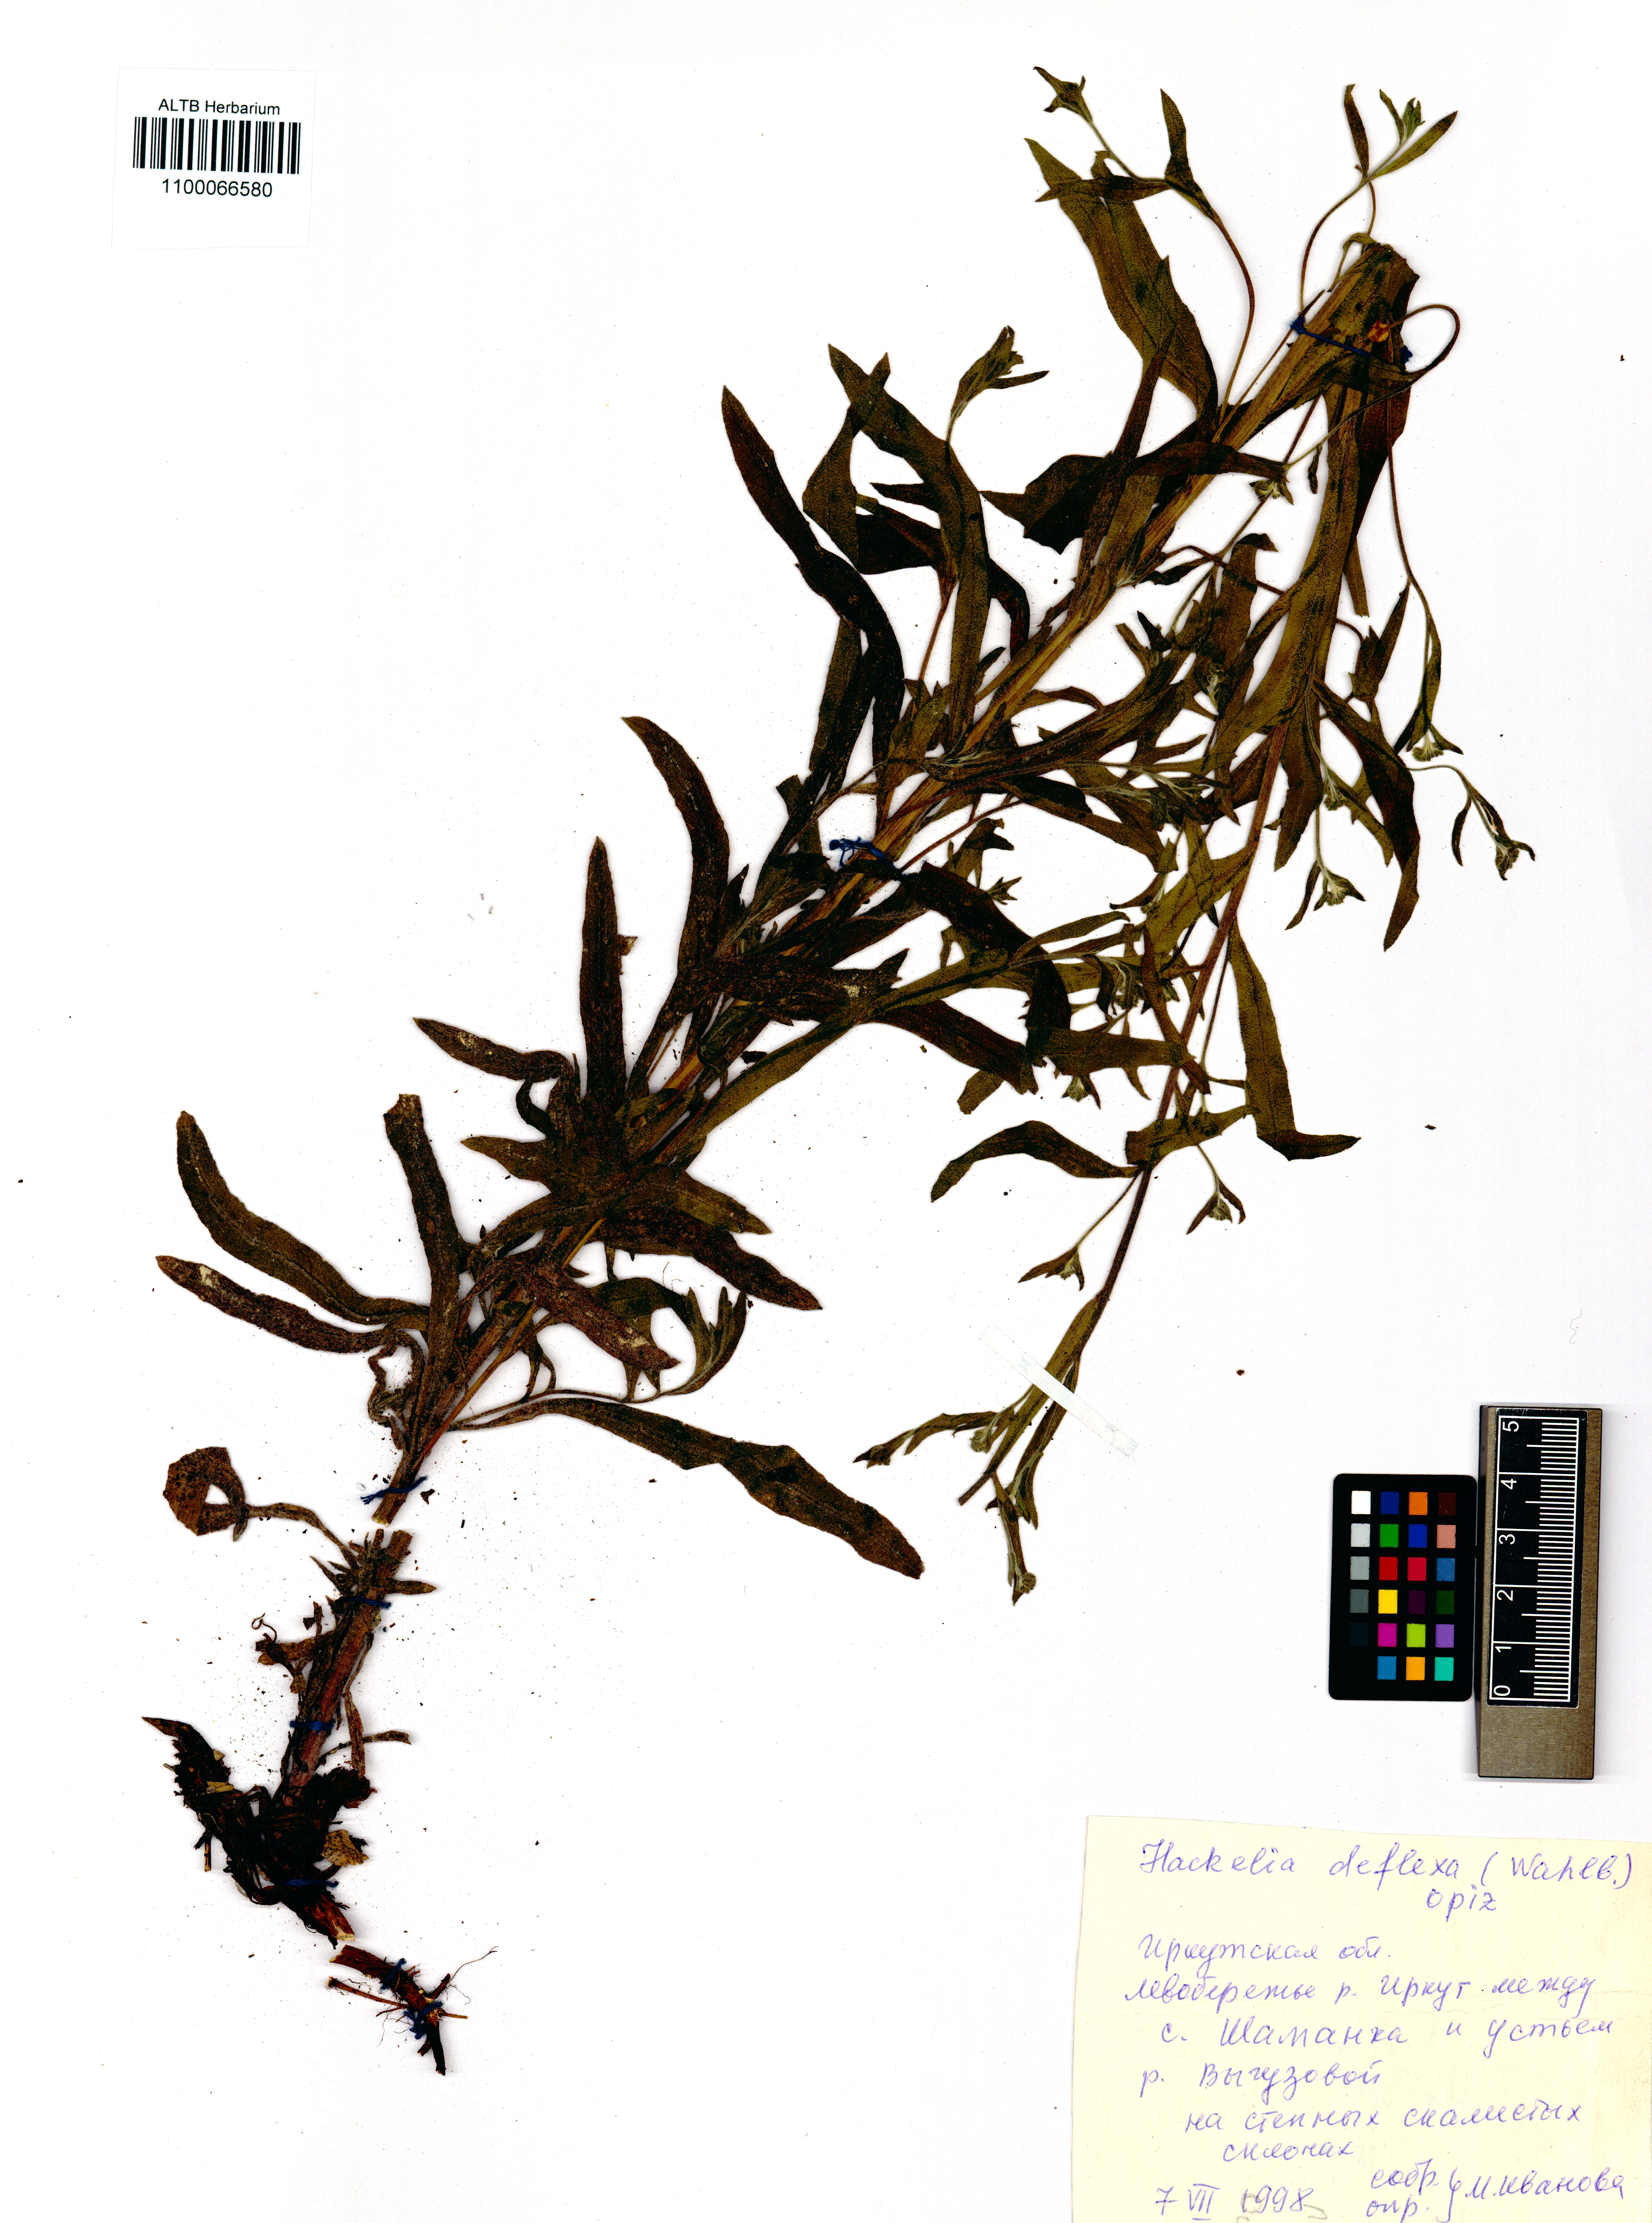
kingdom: Plantae
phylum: Tracheophyta
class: Magnoliopsida
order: Boraginales
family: Boraginaceae
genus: Hackelia
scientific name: Hackelia deflexa
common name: Nodding stickseed
